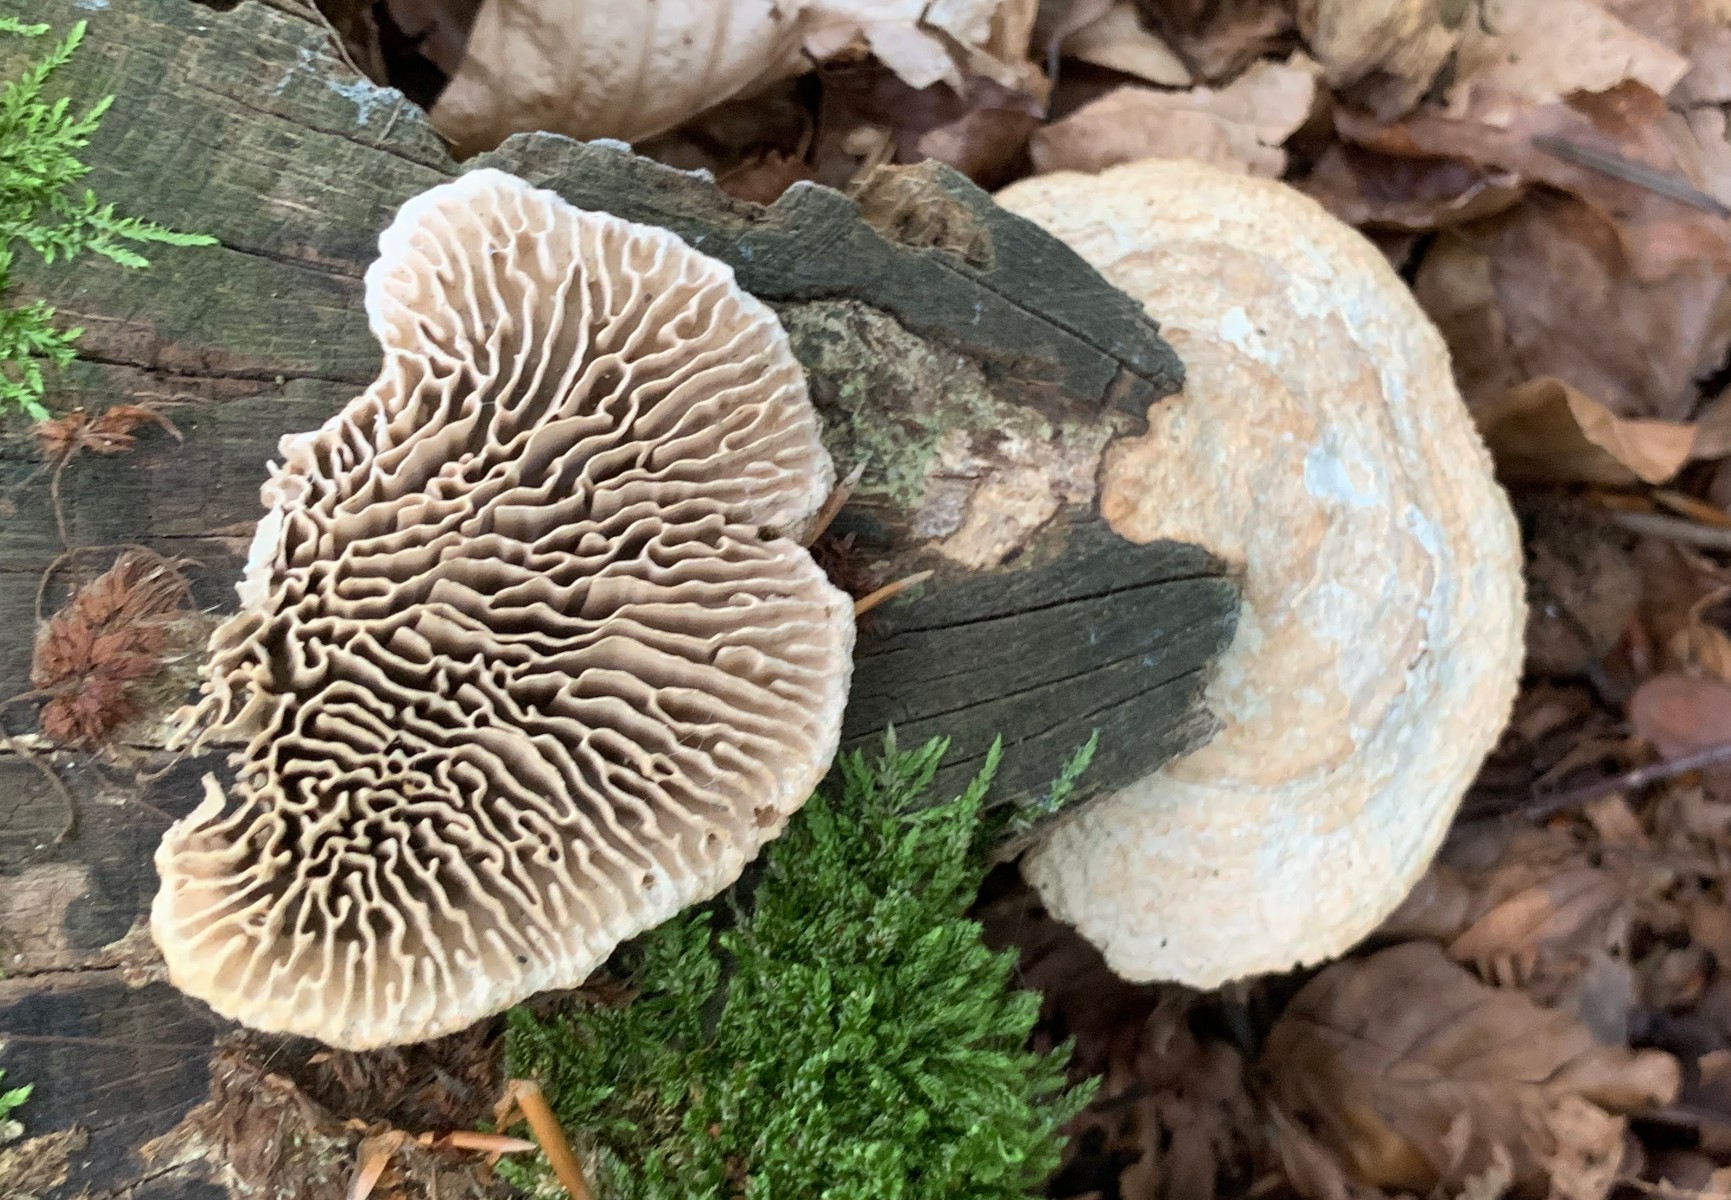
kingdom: Fungi
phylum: Basidiomycota
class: Agaricomycetes
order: Polyporales
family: Fomitopsidaceae
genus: Daedalea
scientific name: Daedalea quercina
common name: ege-labyrintsvamp
